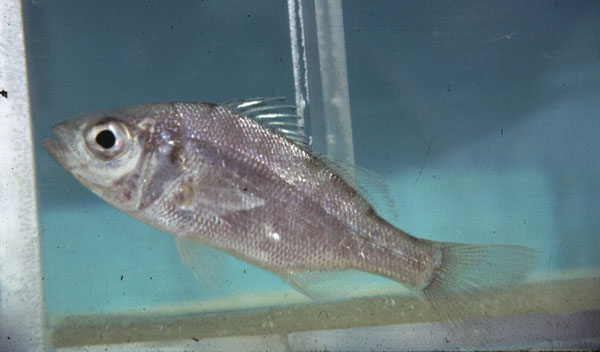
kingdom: Animalia
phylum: Chordata
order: Perciformes
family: Haemulidae
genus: Pomadasys
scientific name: Pomadasys olivaceus
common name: Olive grunt
